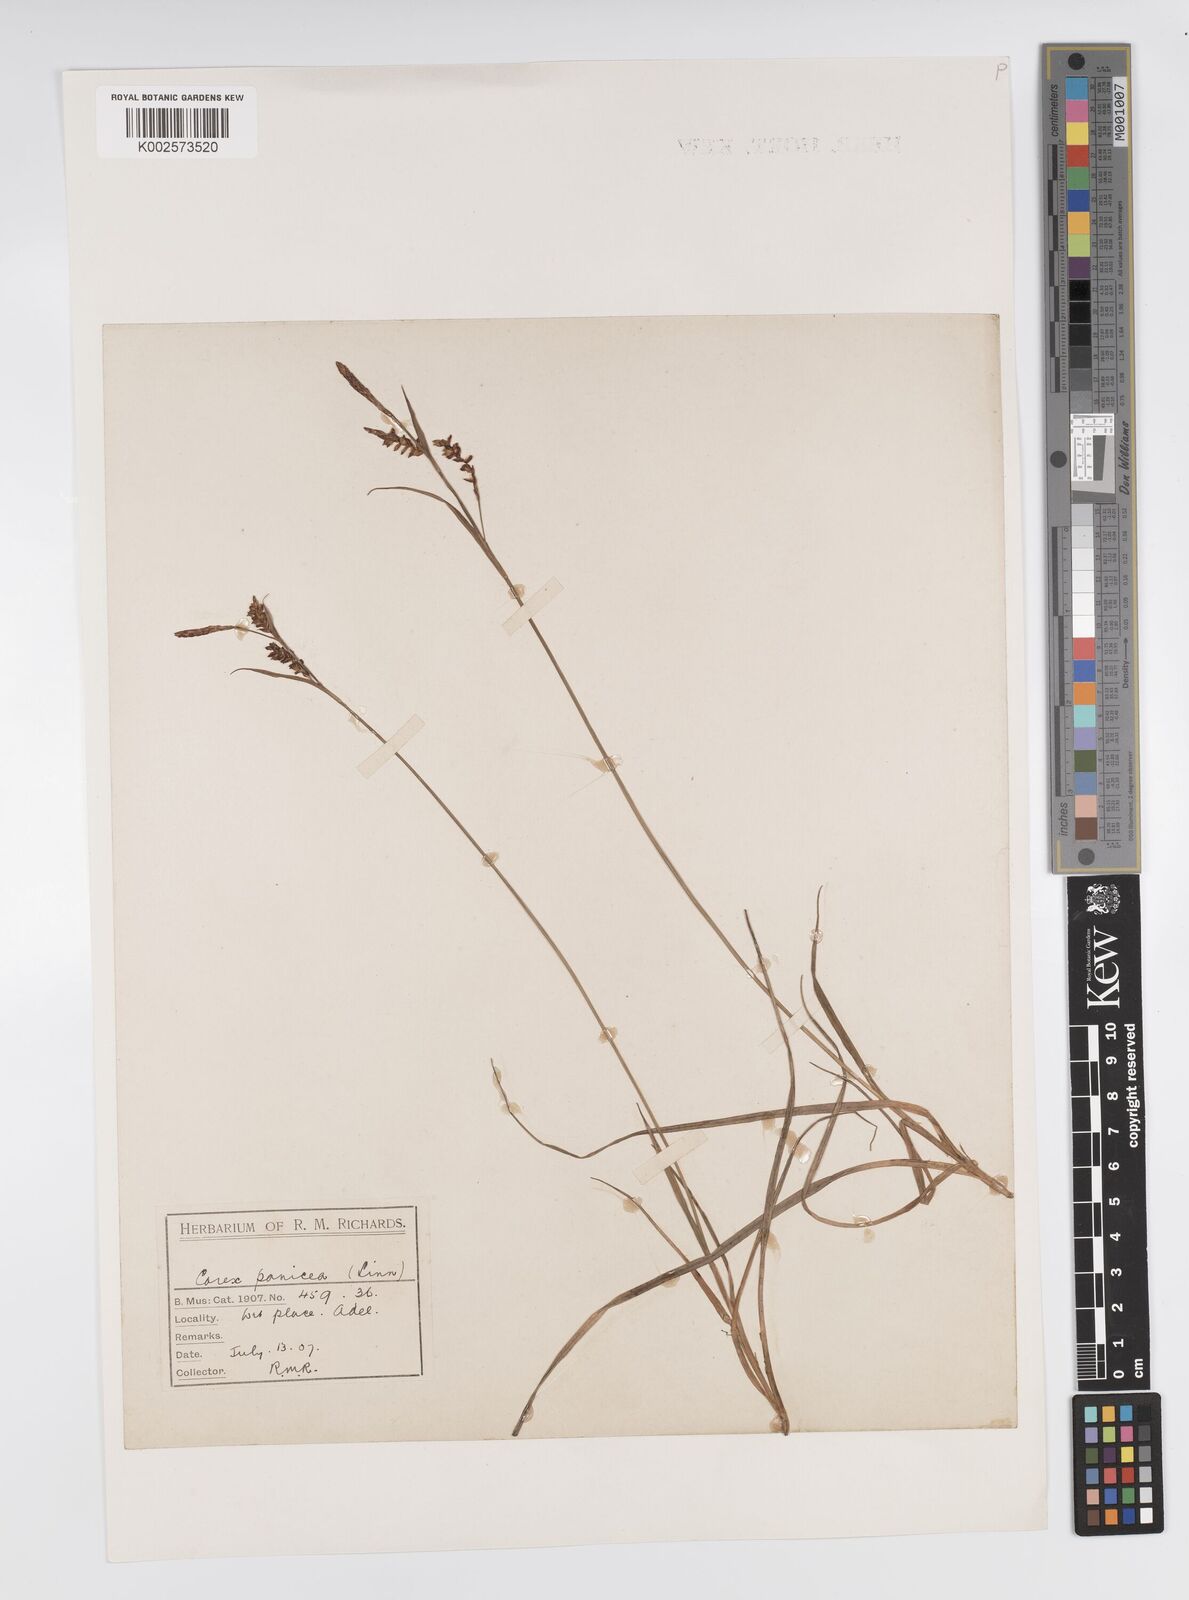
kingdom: Plantae
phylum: Tracheophyta
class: Liliopsida
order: Poales
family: Cyperaceae
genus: Carex
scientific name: Carex panicea
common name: Carnation sedge
